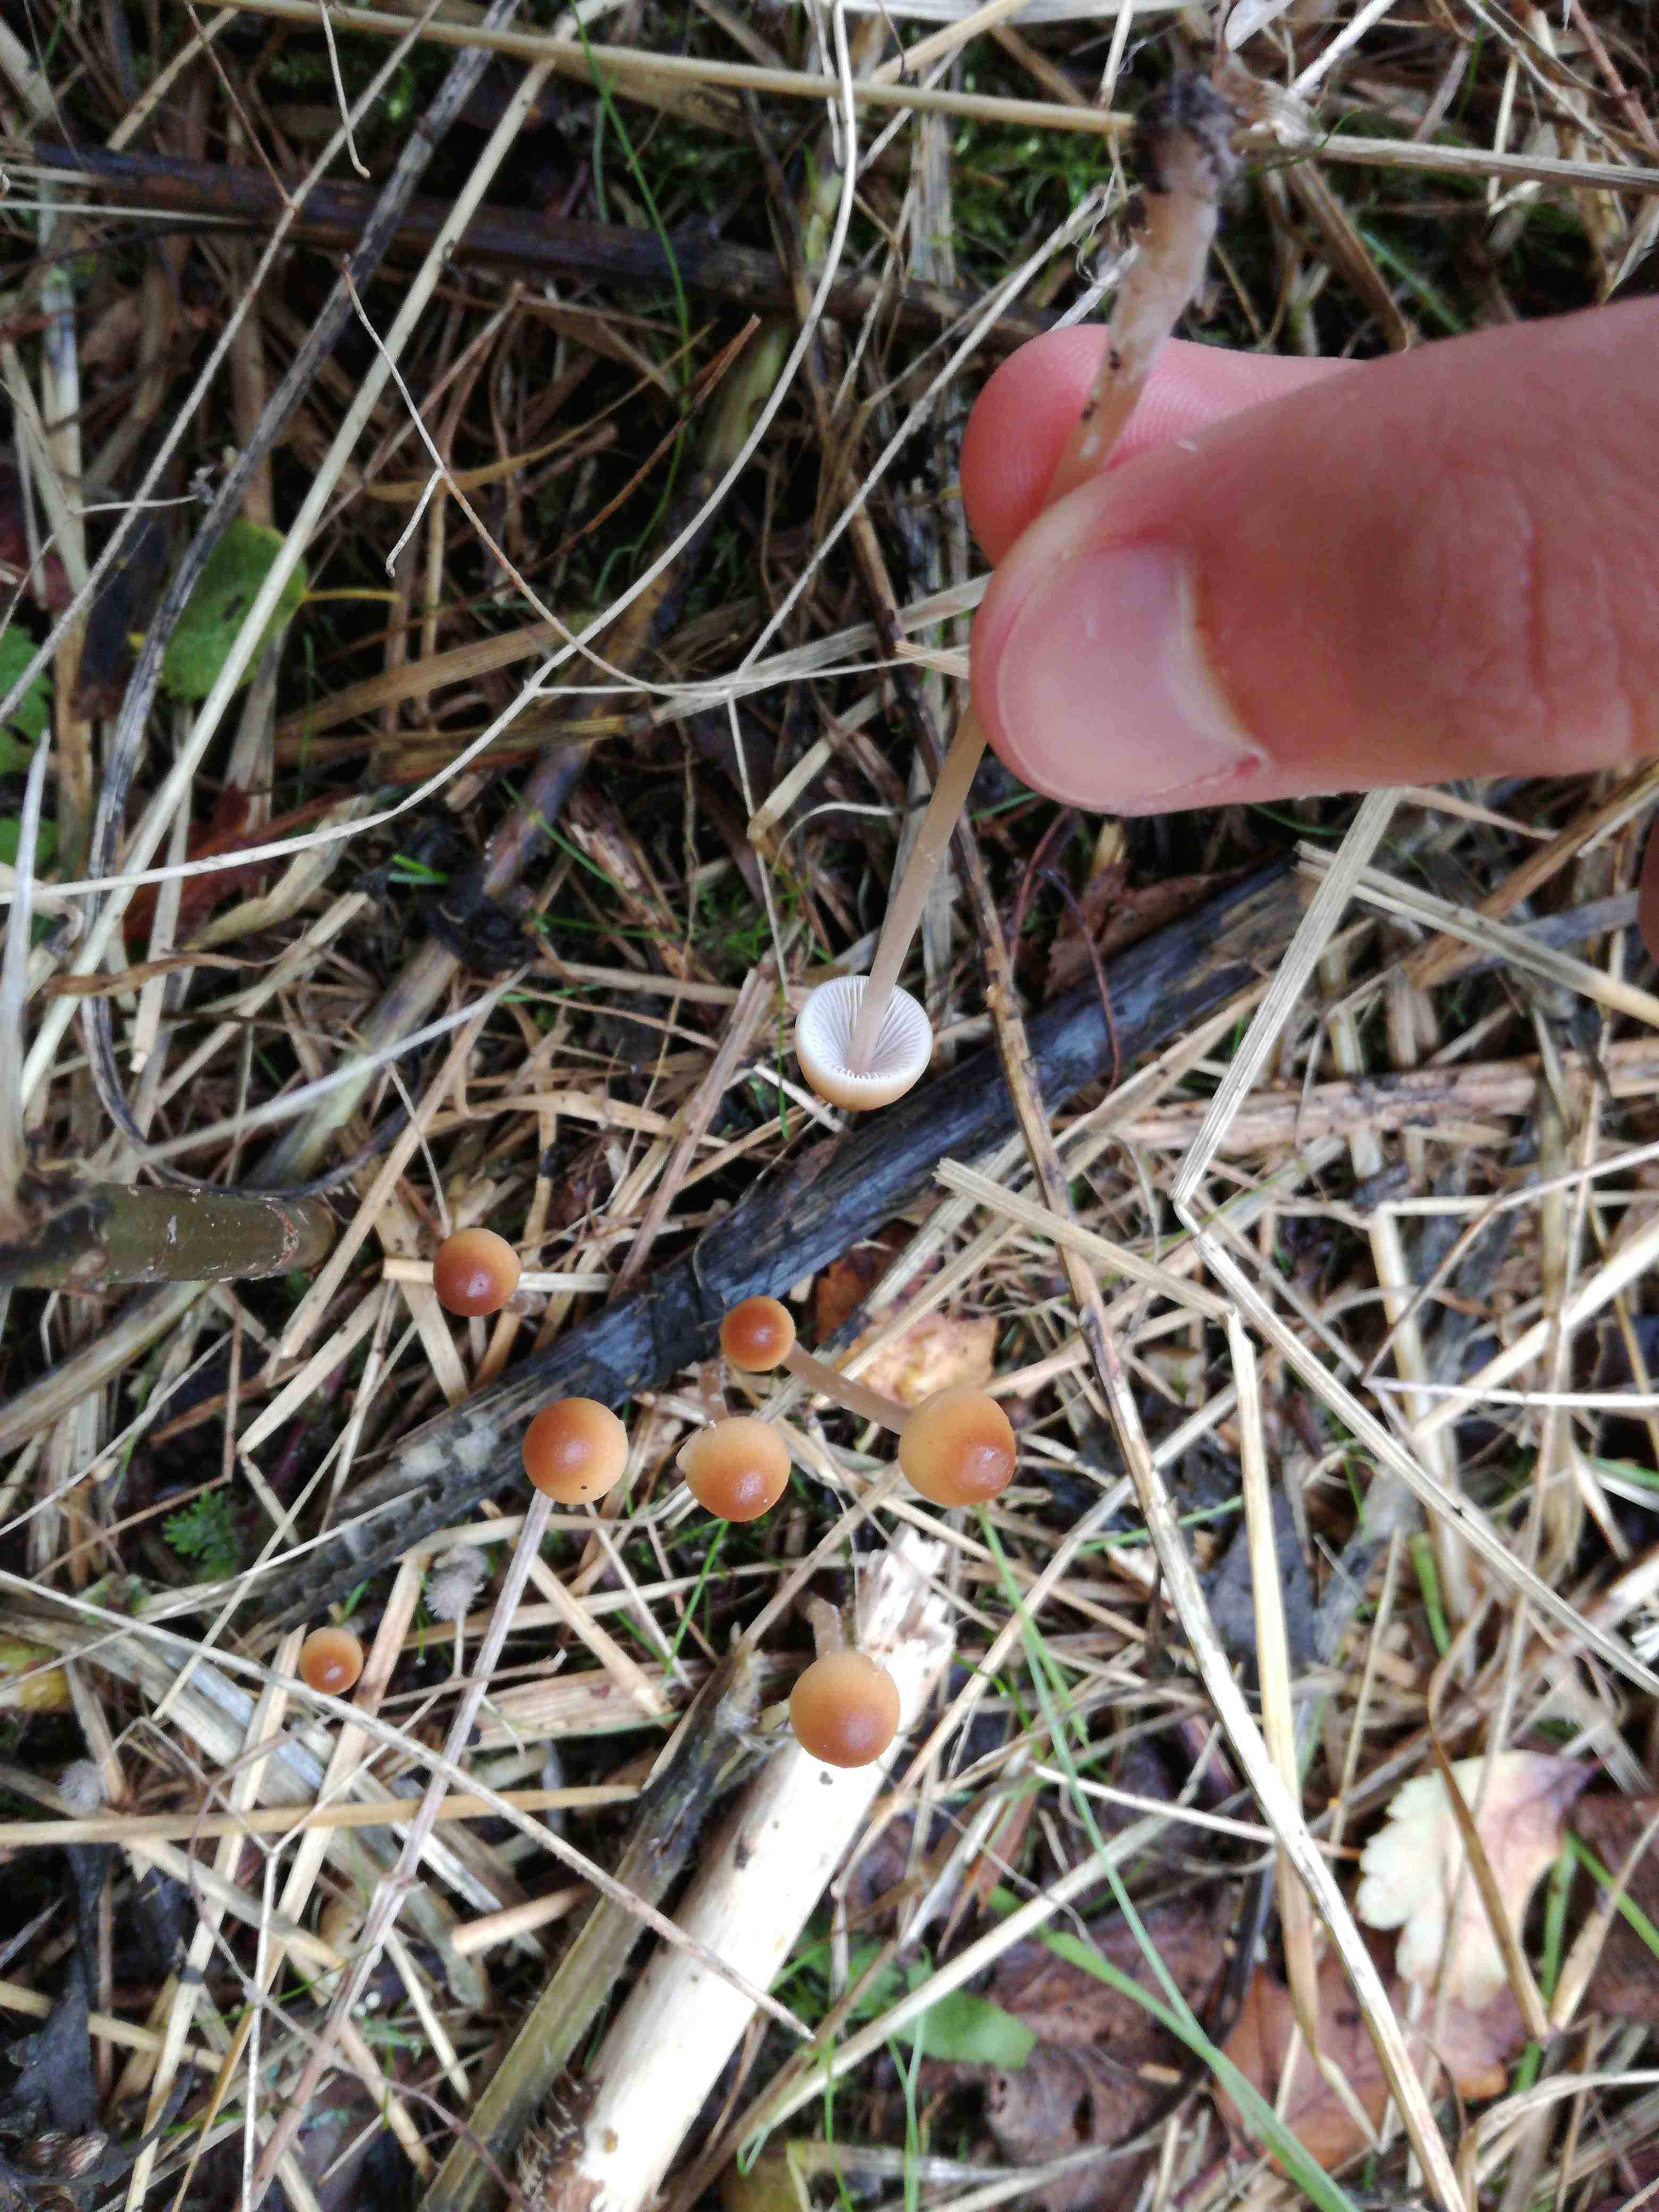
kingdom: Fungi
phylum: Basidiomycota
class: Agaricomycetes
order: Agaricales
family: Psathyrellaceae
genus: Psathyrella
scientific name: Psathyrella
